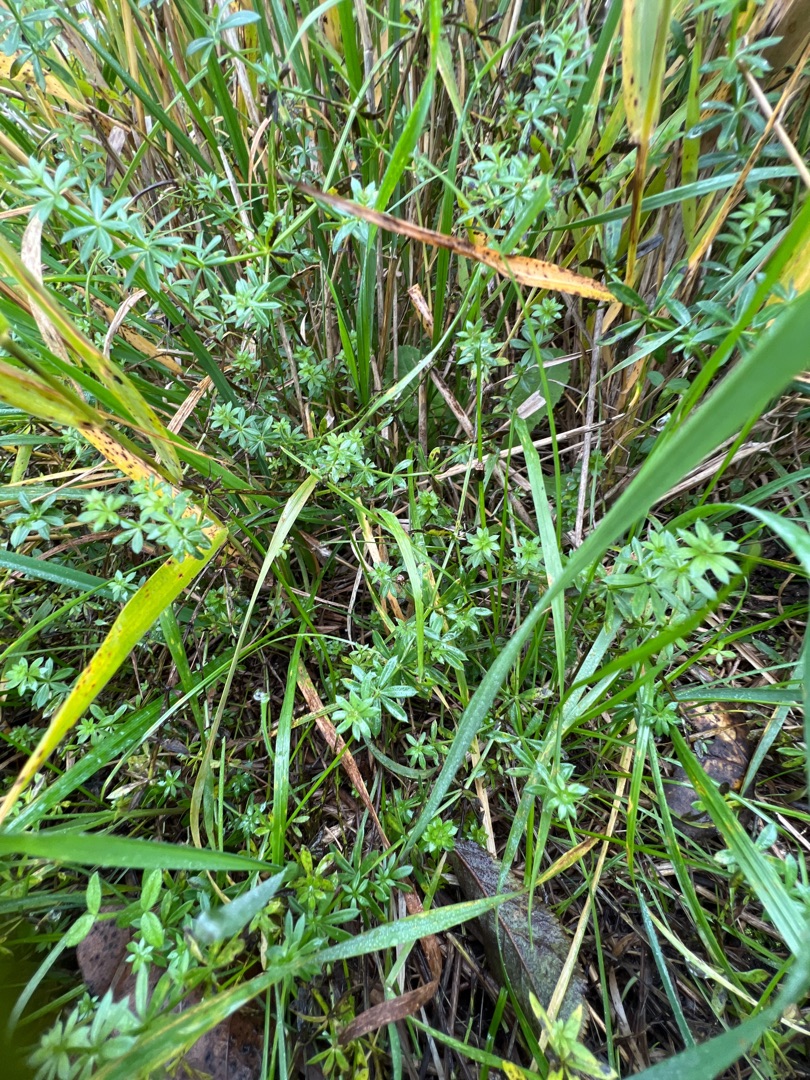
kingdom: Plantae
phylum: Tracheophyta
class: Magnoliopsida
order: Gentianales
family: Rubiaceae
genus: Galium
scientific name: Galium mollugo
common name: Hvid snerre
